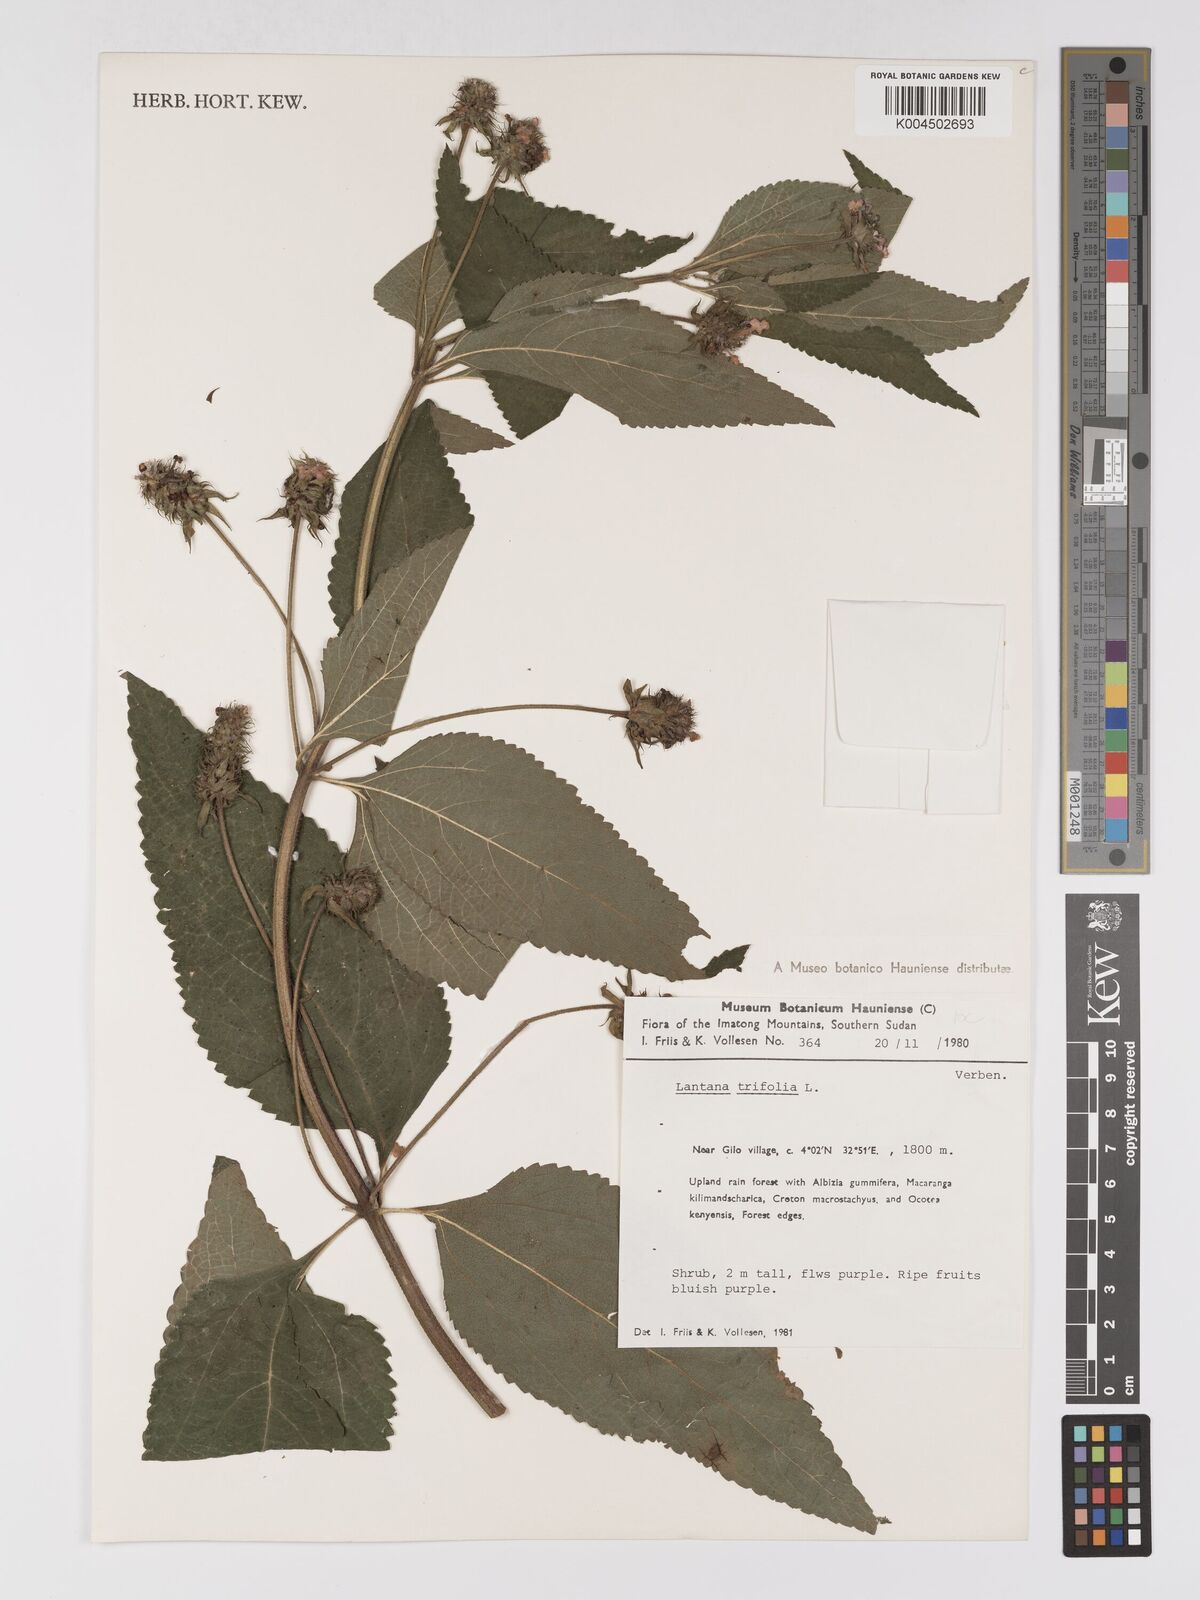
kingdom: Plantae
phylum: Tracheophyta
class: Magnoliopsida
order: Lamiales
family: Verbenaceae
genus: Lantana
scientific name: Lantana trifolia
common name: Sweet-sage
